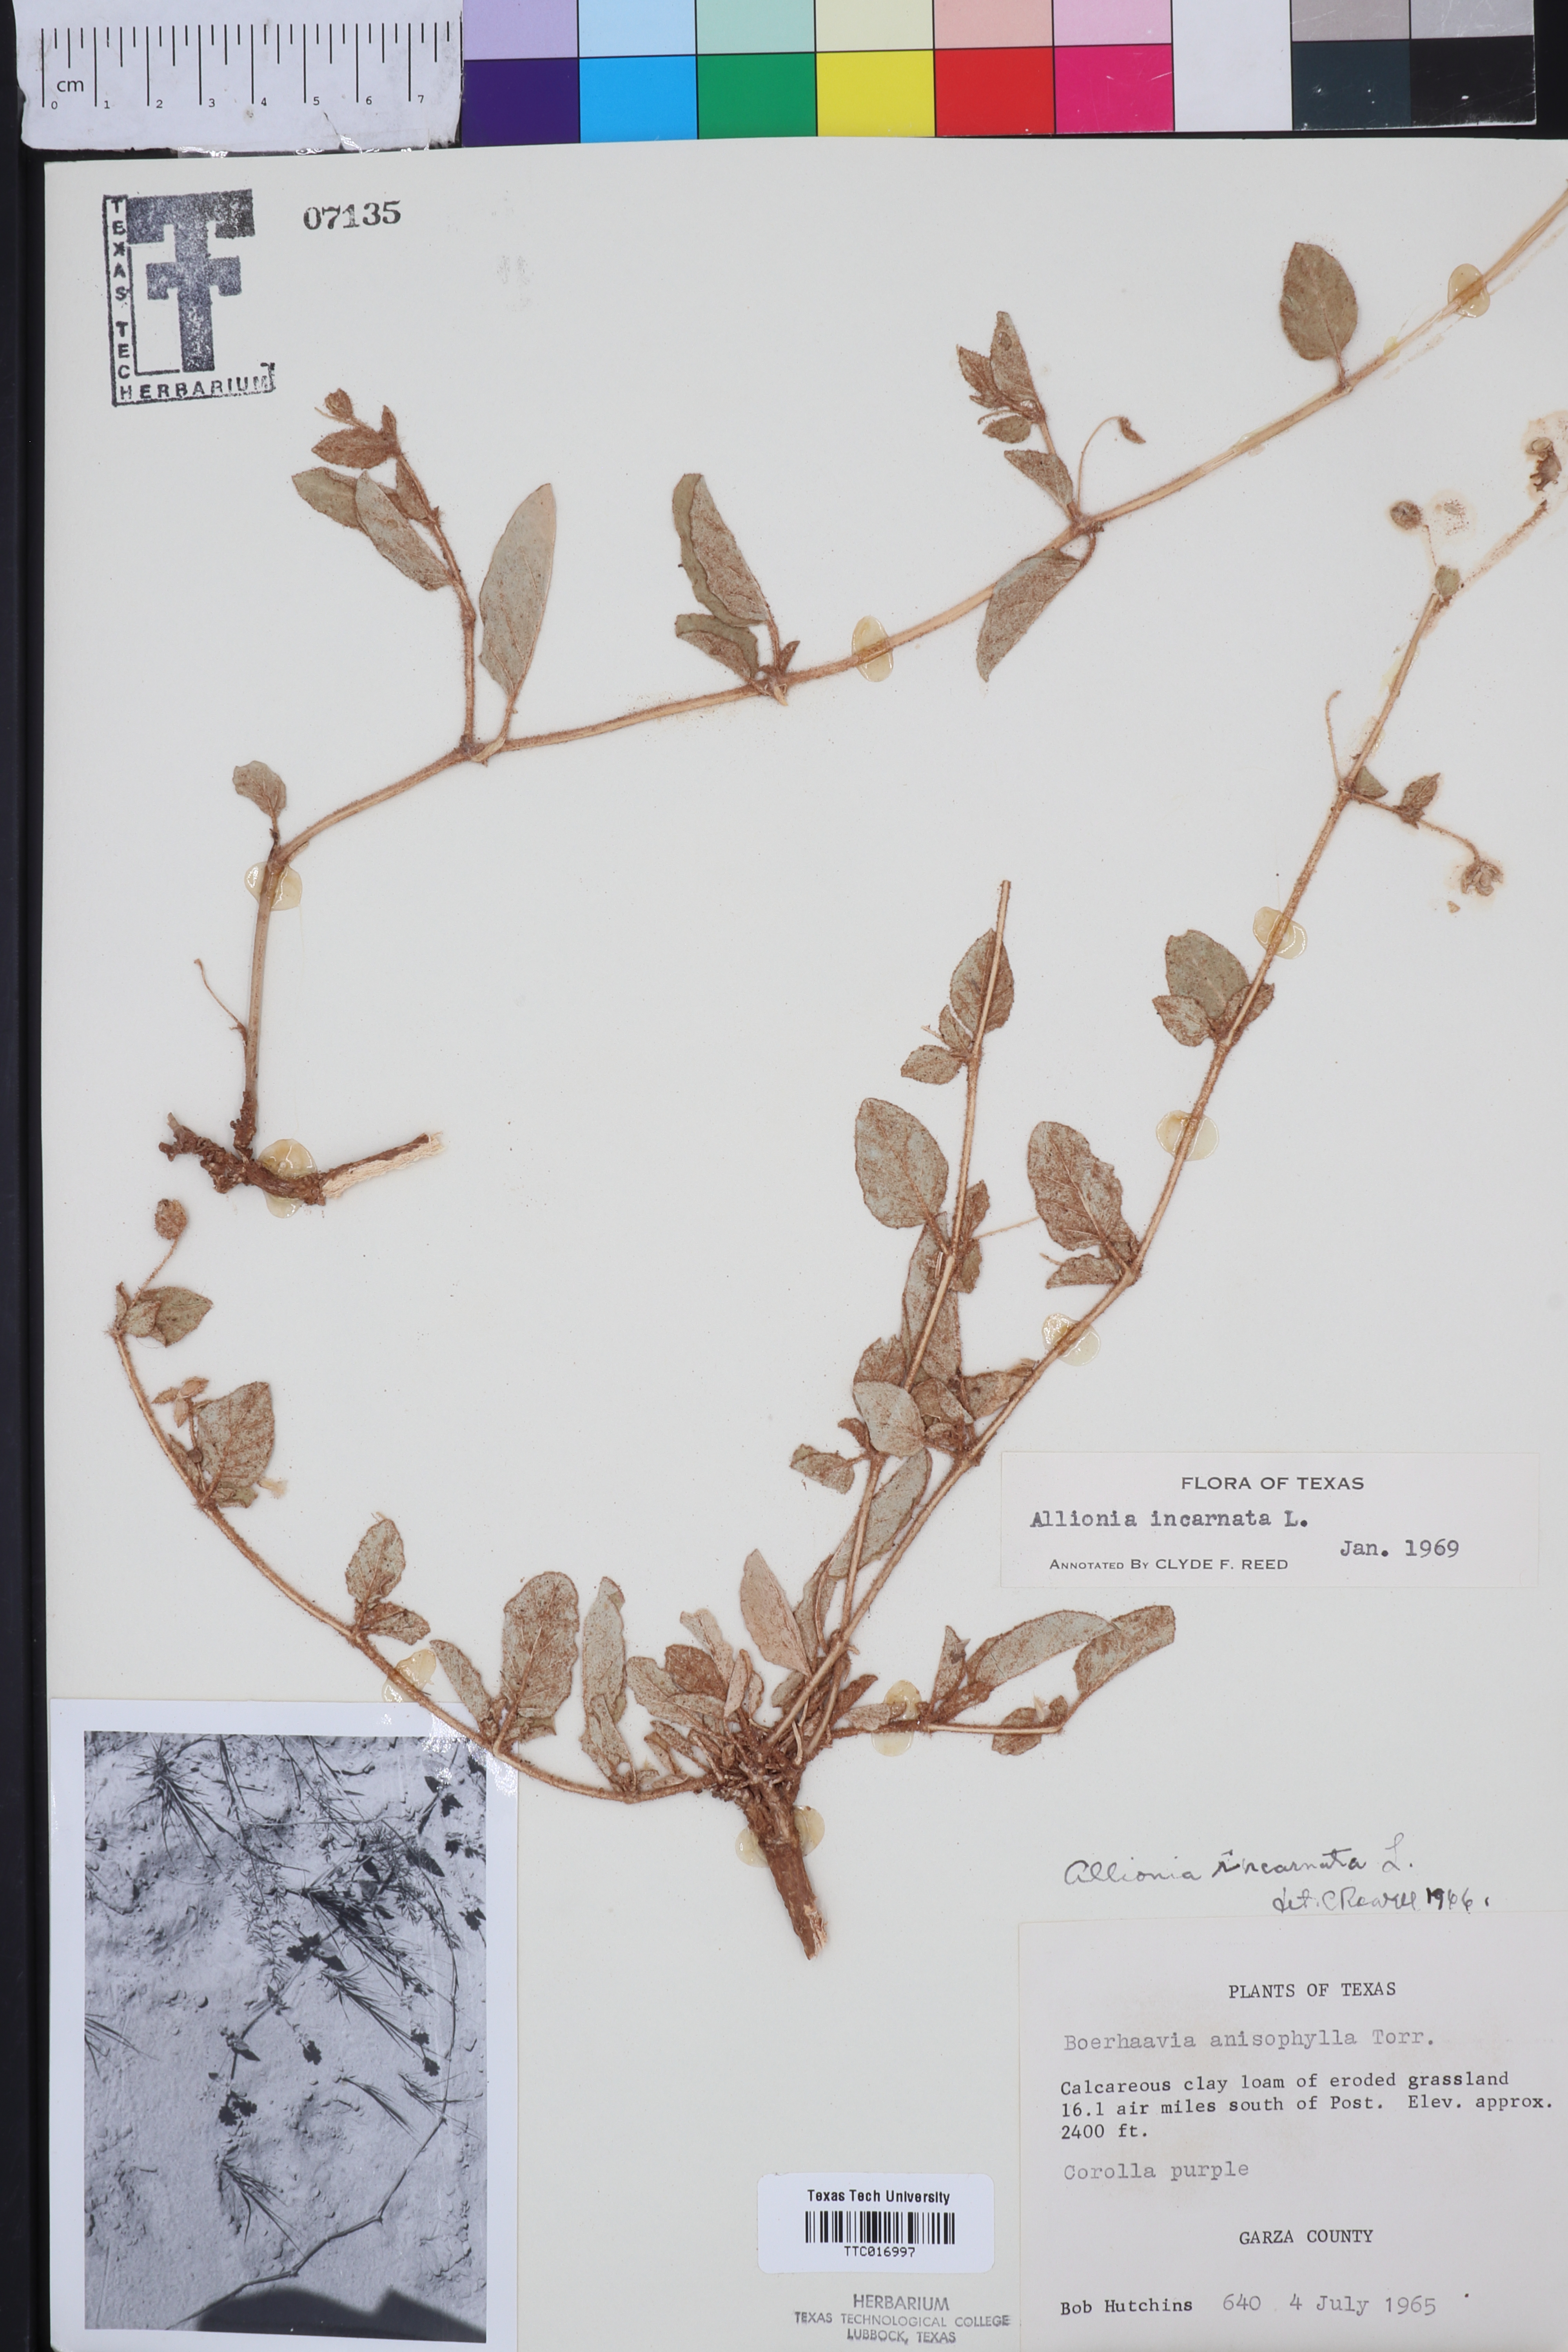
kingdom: Plantae
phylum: Tracheophyta
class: Magnoliopsida
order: Caryophyllales
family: Nyctaginaceae
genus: Allionia
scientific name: Allionia incarnata
